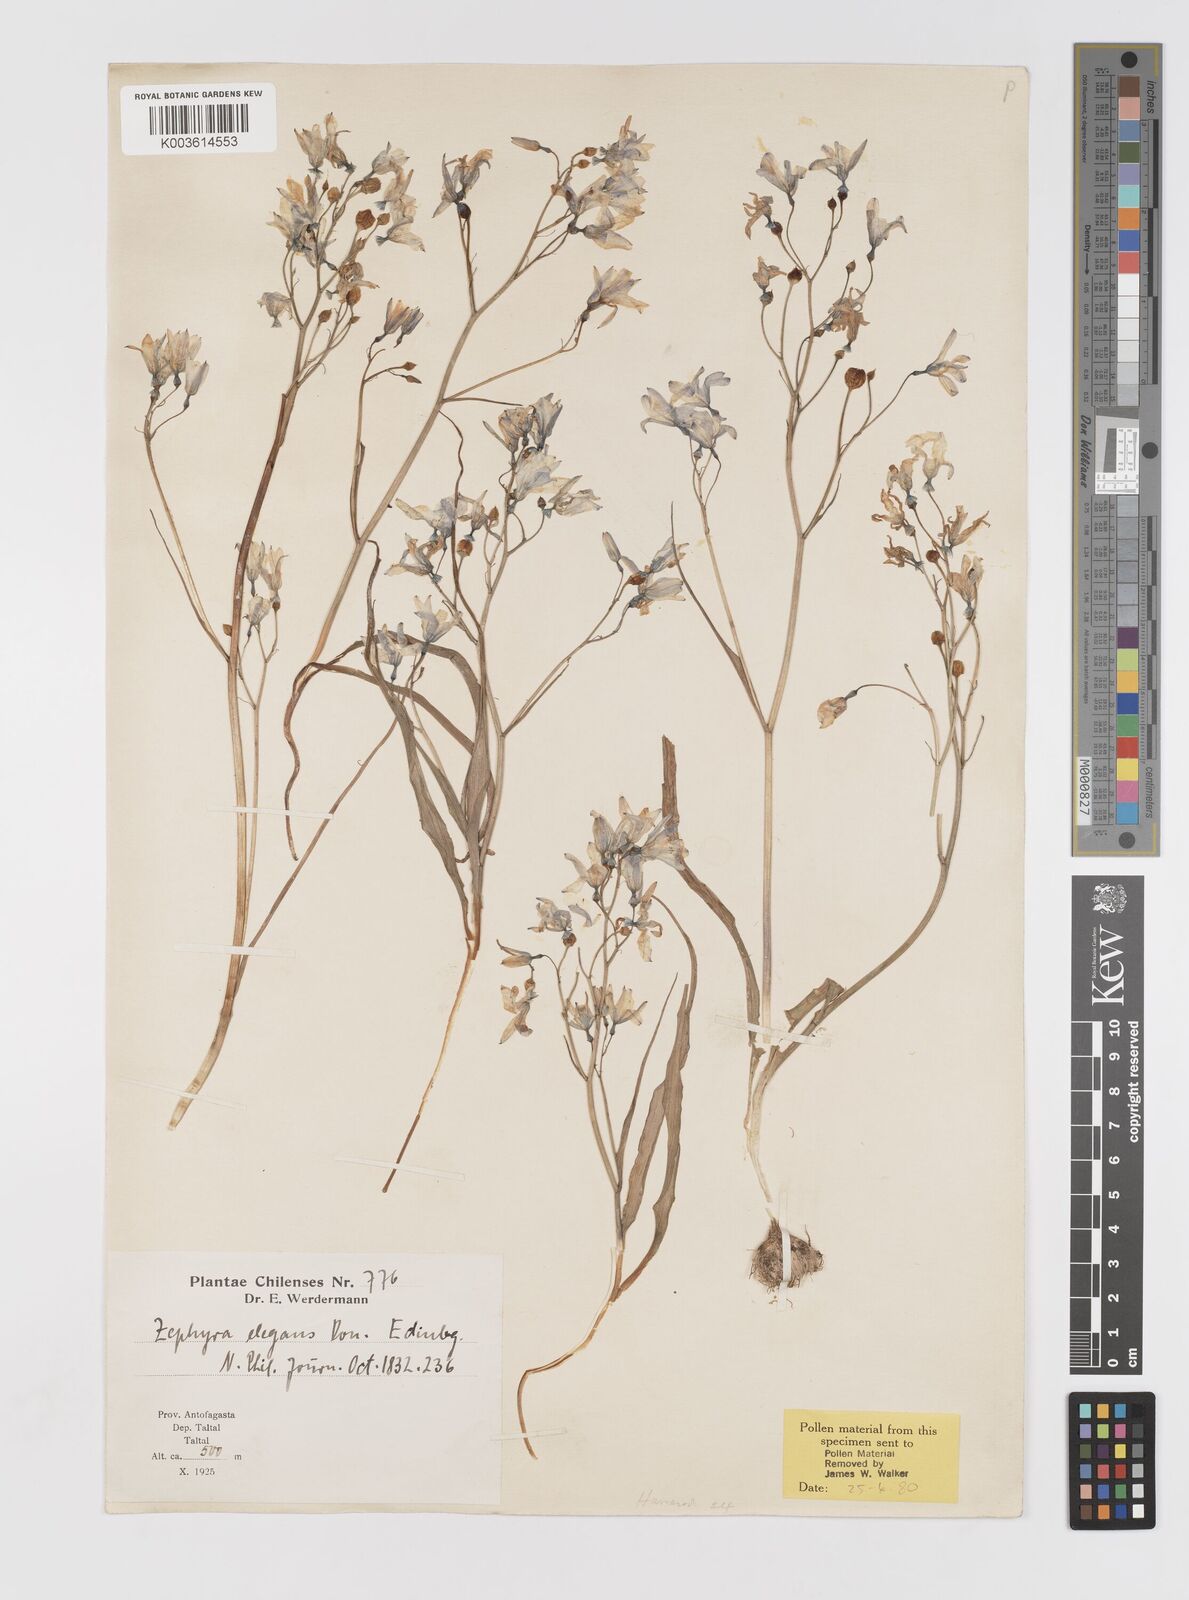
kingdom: Plantae
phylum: Tracheophyta
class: Liliopsida
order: Asparagales
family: Tecophilaeaceae
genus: Zephyra
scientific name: Zephyra elegans
